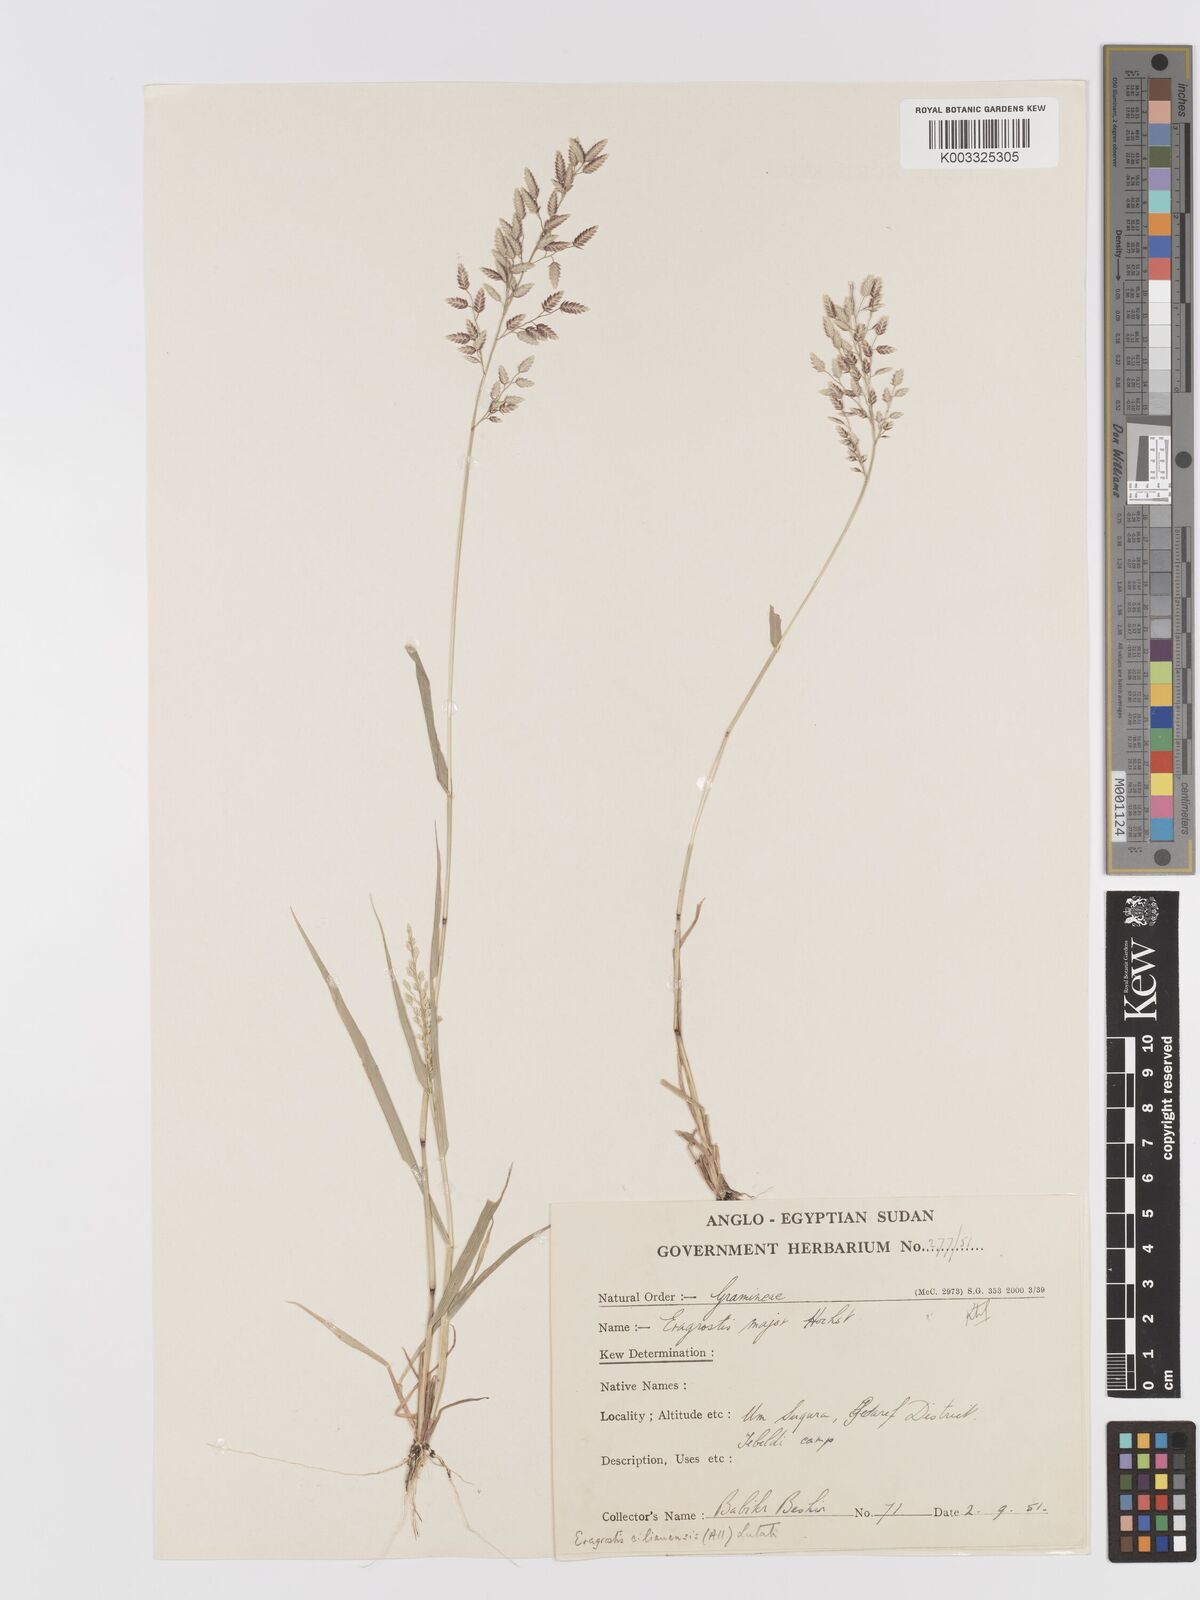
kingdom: Plantae
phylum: Tracheophyta
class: Liliopsida
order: Poales
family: Poaceae
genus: Eragrostis
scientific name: Eragrostis cilianensis
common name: Stinkgrass
